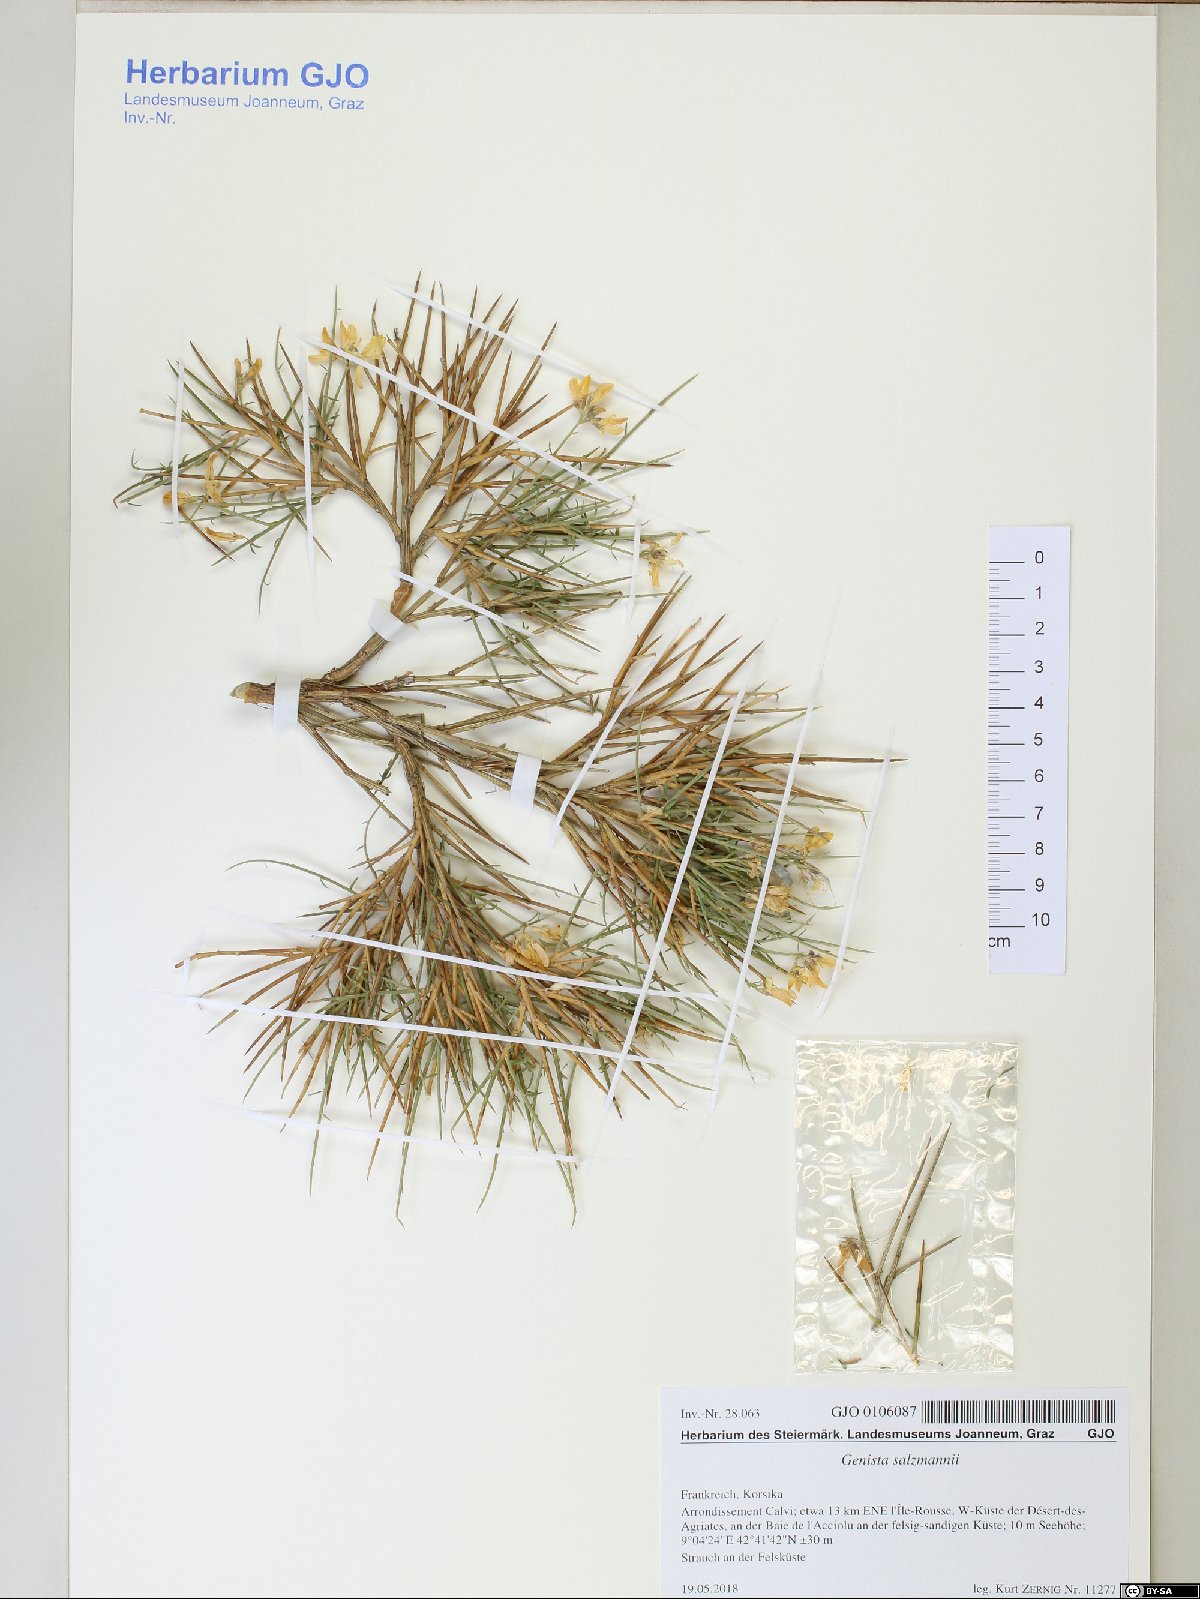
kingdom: Plantae
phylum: Tracheophyta
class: Magnoliopsida
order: Fabales
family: Fabaceae
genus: Genista
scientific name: Genista salzmannii
